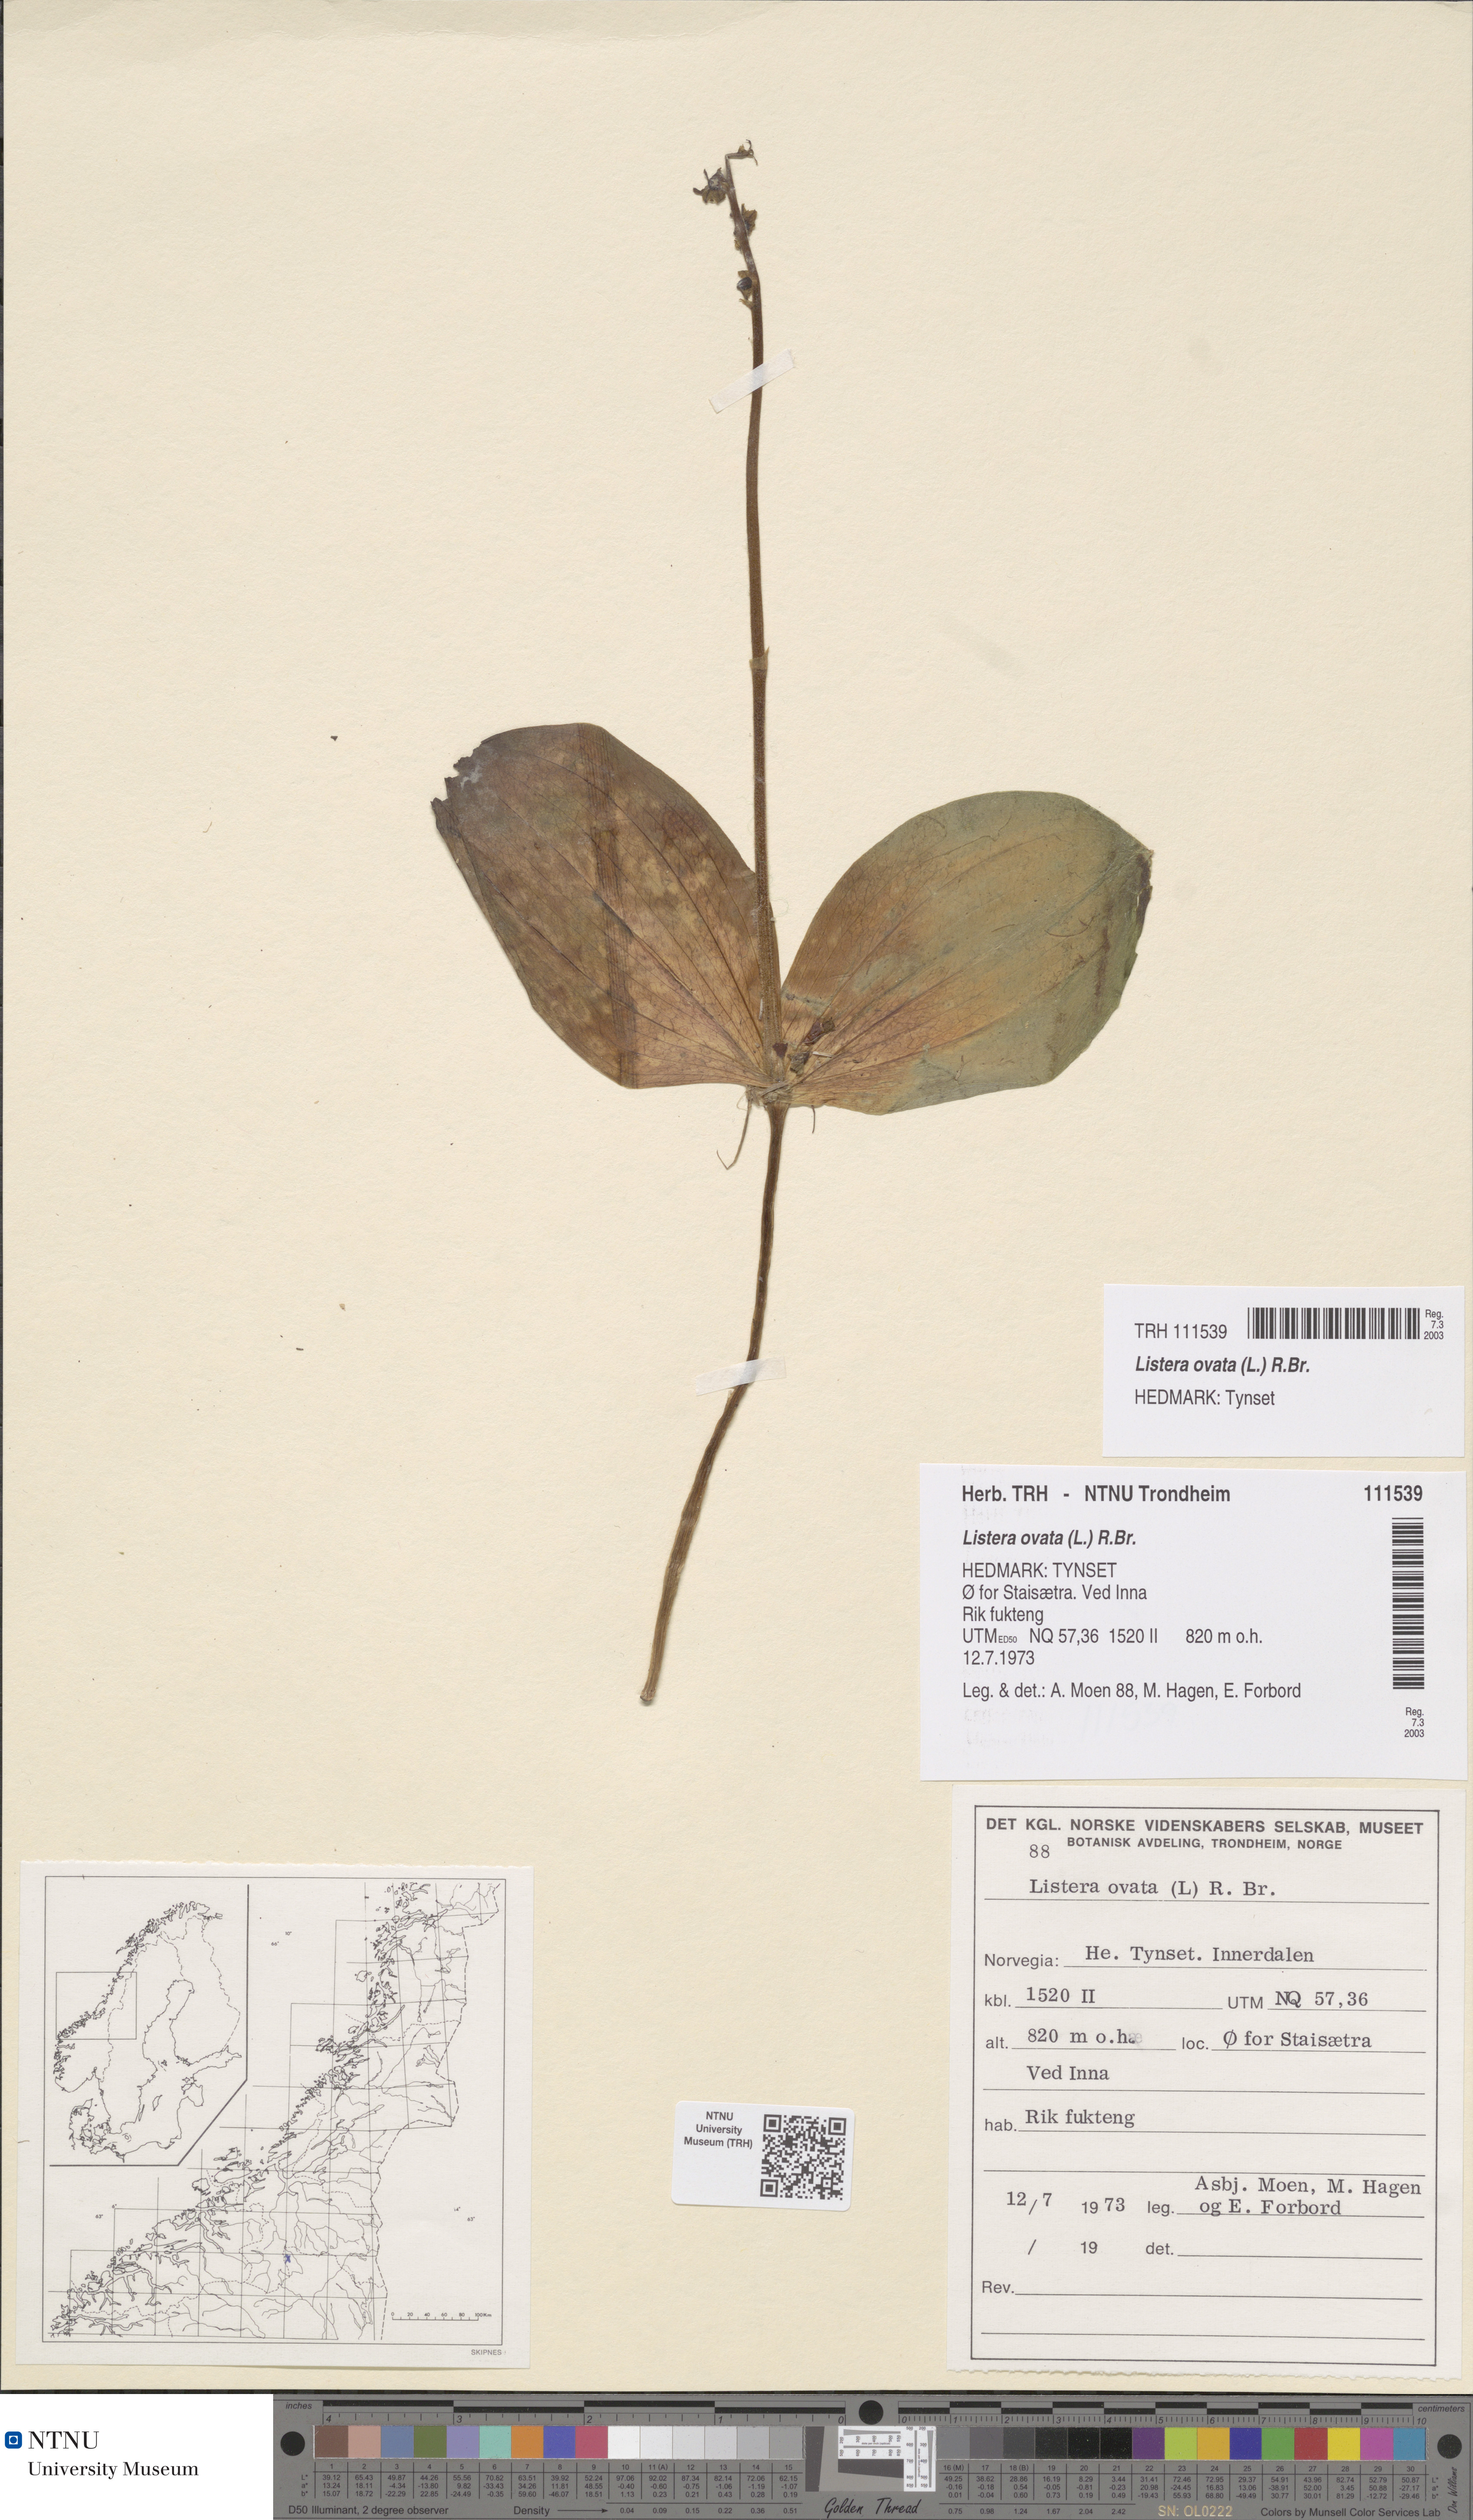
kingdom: Plantae
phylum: Tracheophyta
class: Liliopsida
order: Asparagales
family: Orchidaceae
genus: Neottia
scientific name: Neottia ovata
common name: Common twayblade
